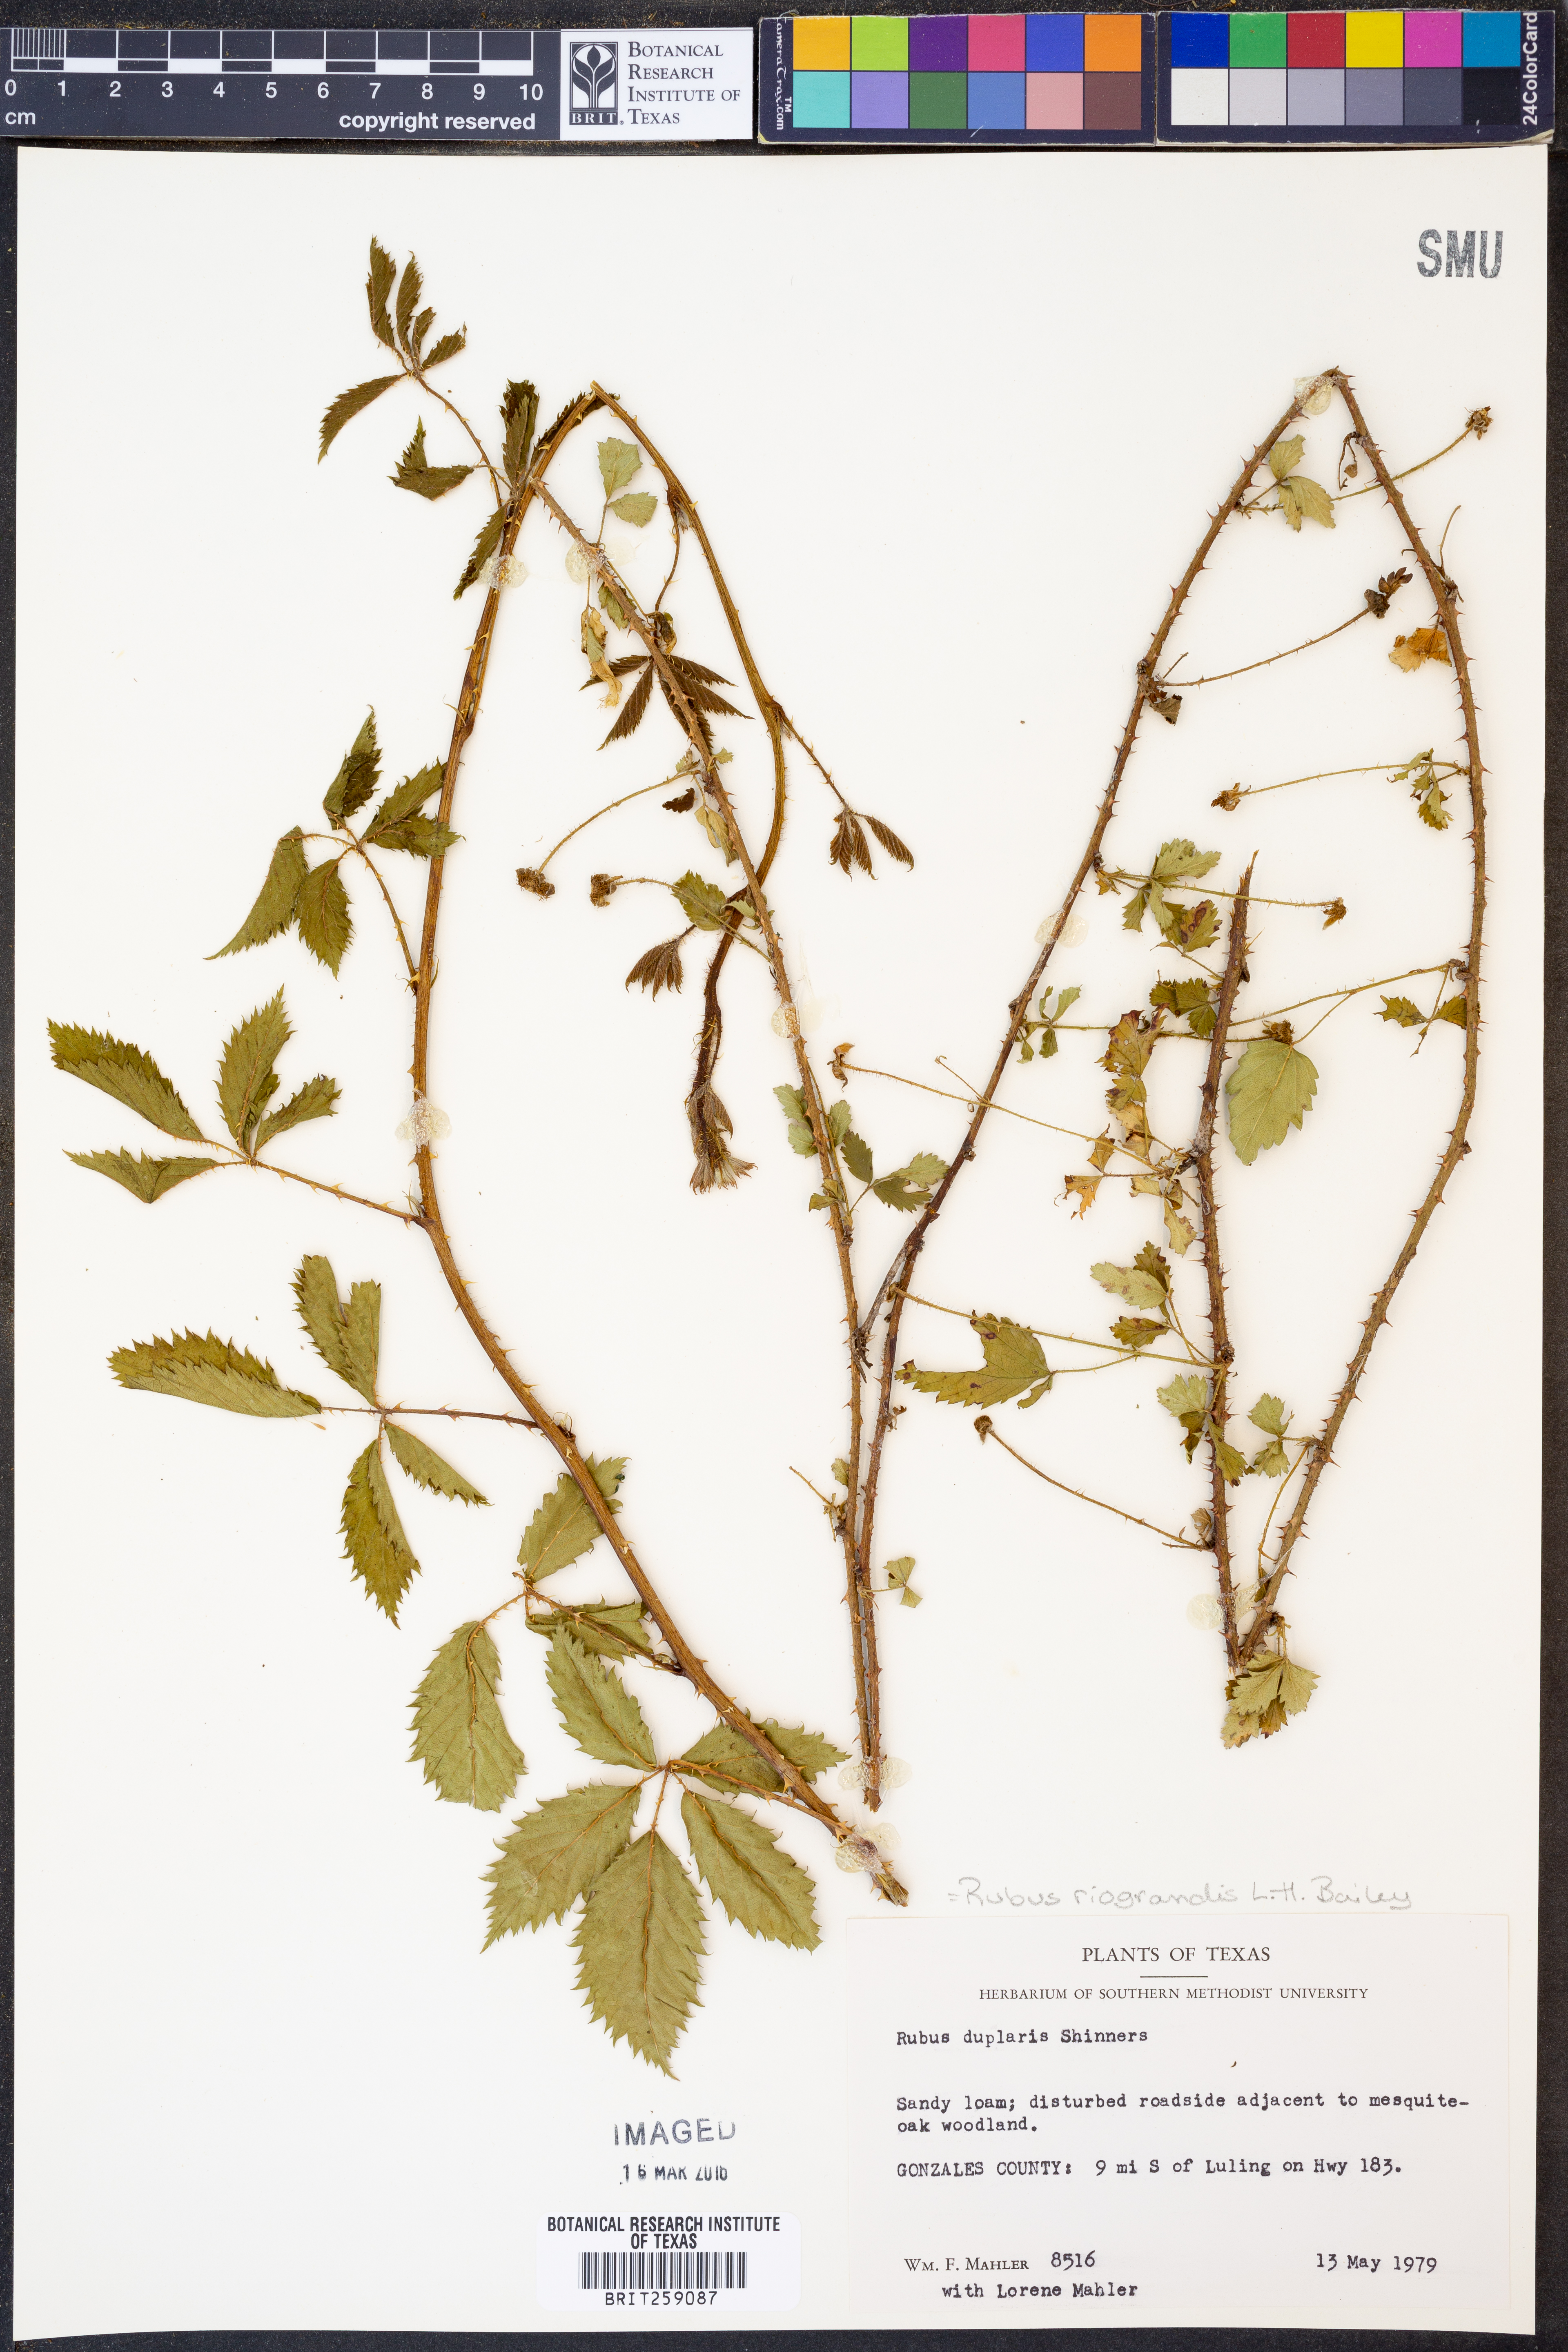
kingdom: Plantae
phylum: Tracheophyta
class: Magnoliopsida
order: Rosales
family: Rosaceae
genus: Rubus
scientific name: Rubus riograndis
